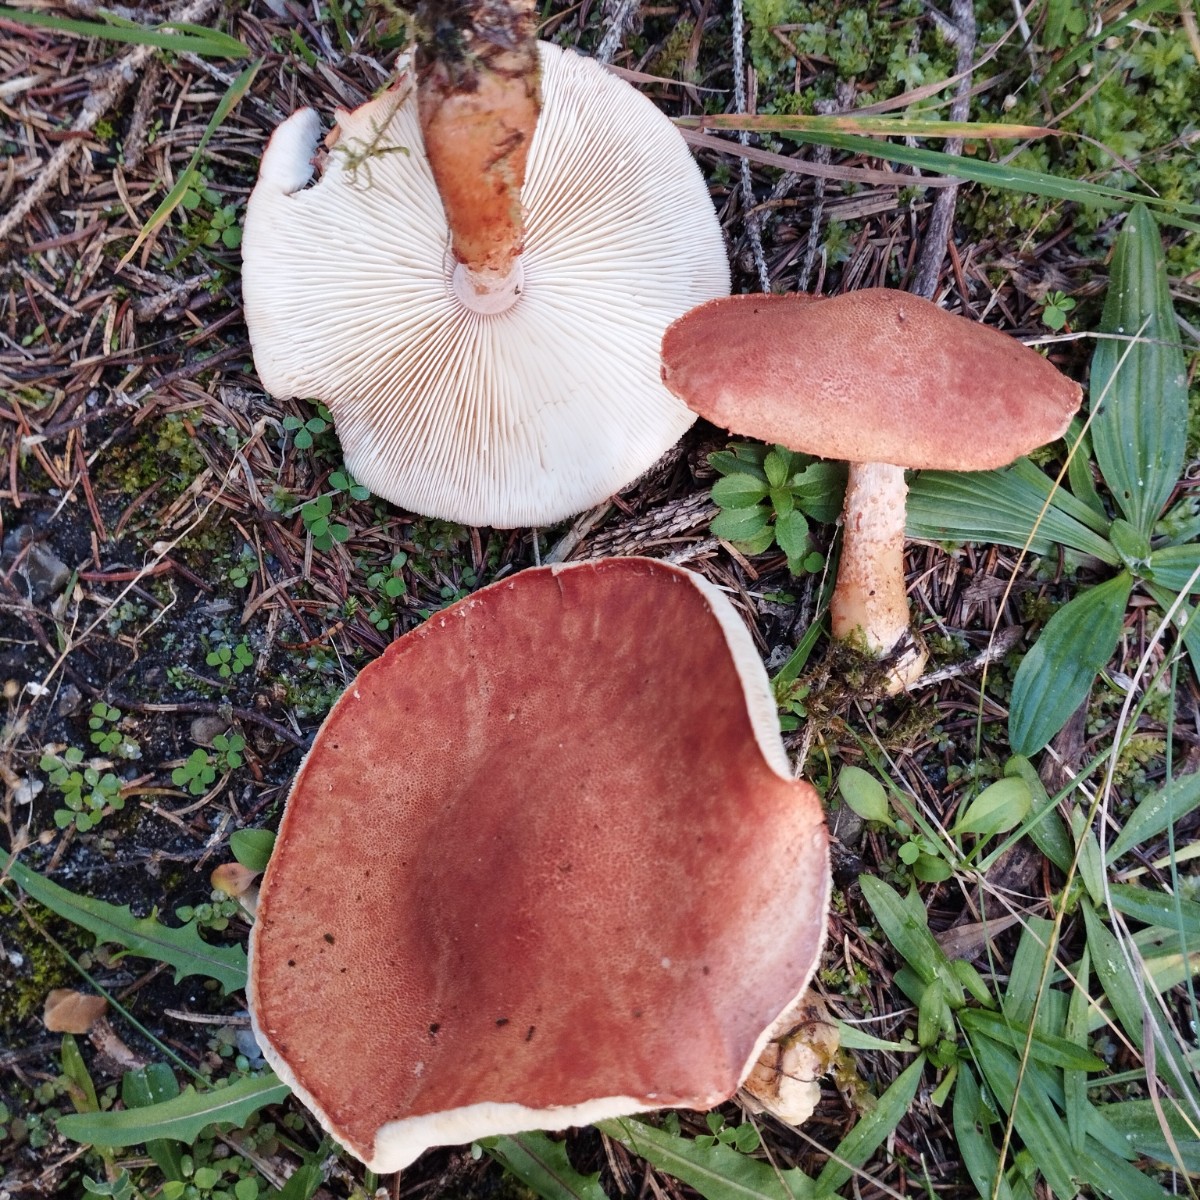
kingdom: Fungi
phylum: Basidiomycota
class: Agaricomycetes
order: Agaricales
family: Agaricaceae
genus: Cystodermella
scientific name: Cystodermella cinnabarina
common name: cinnober-grynhat
